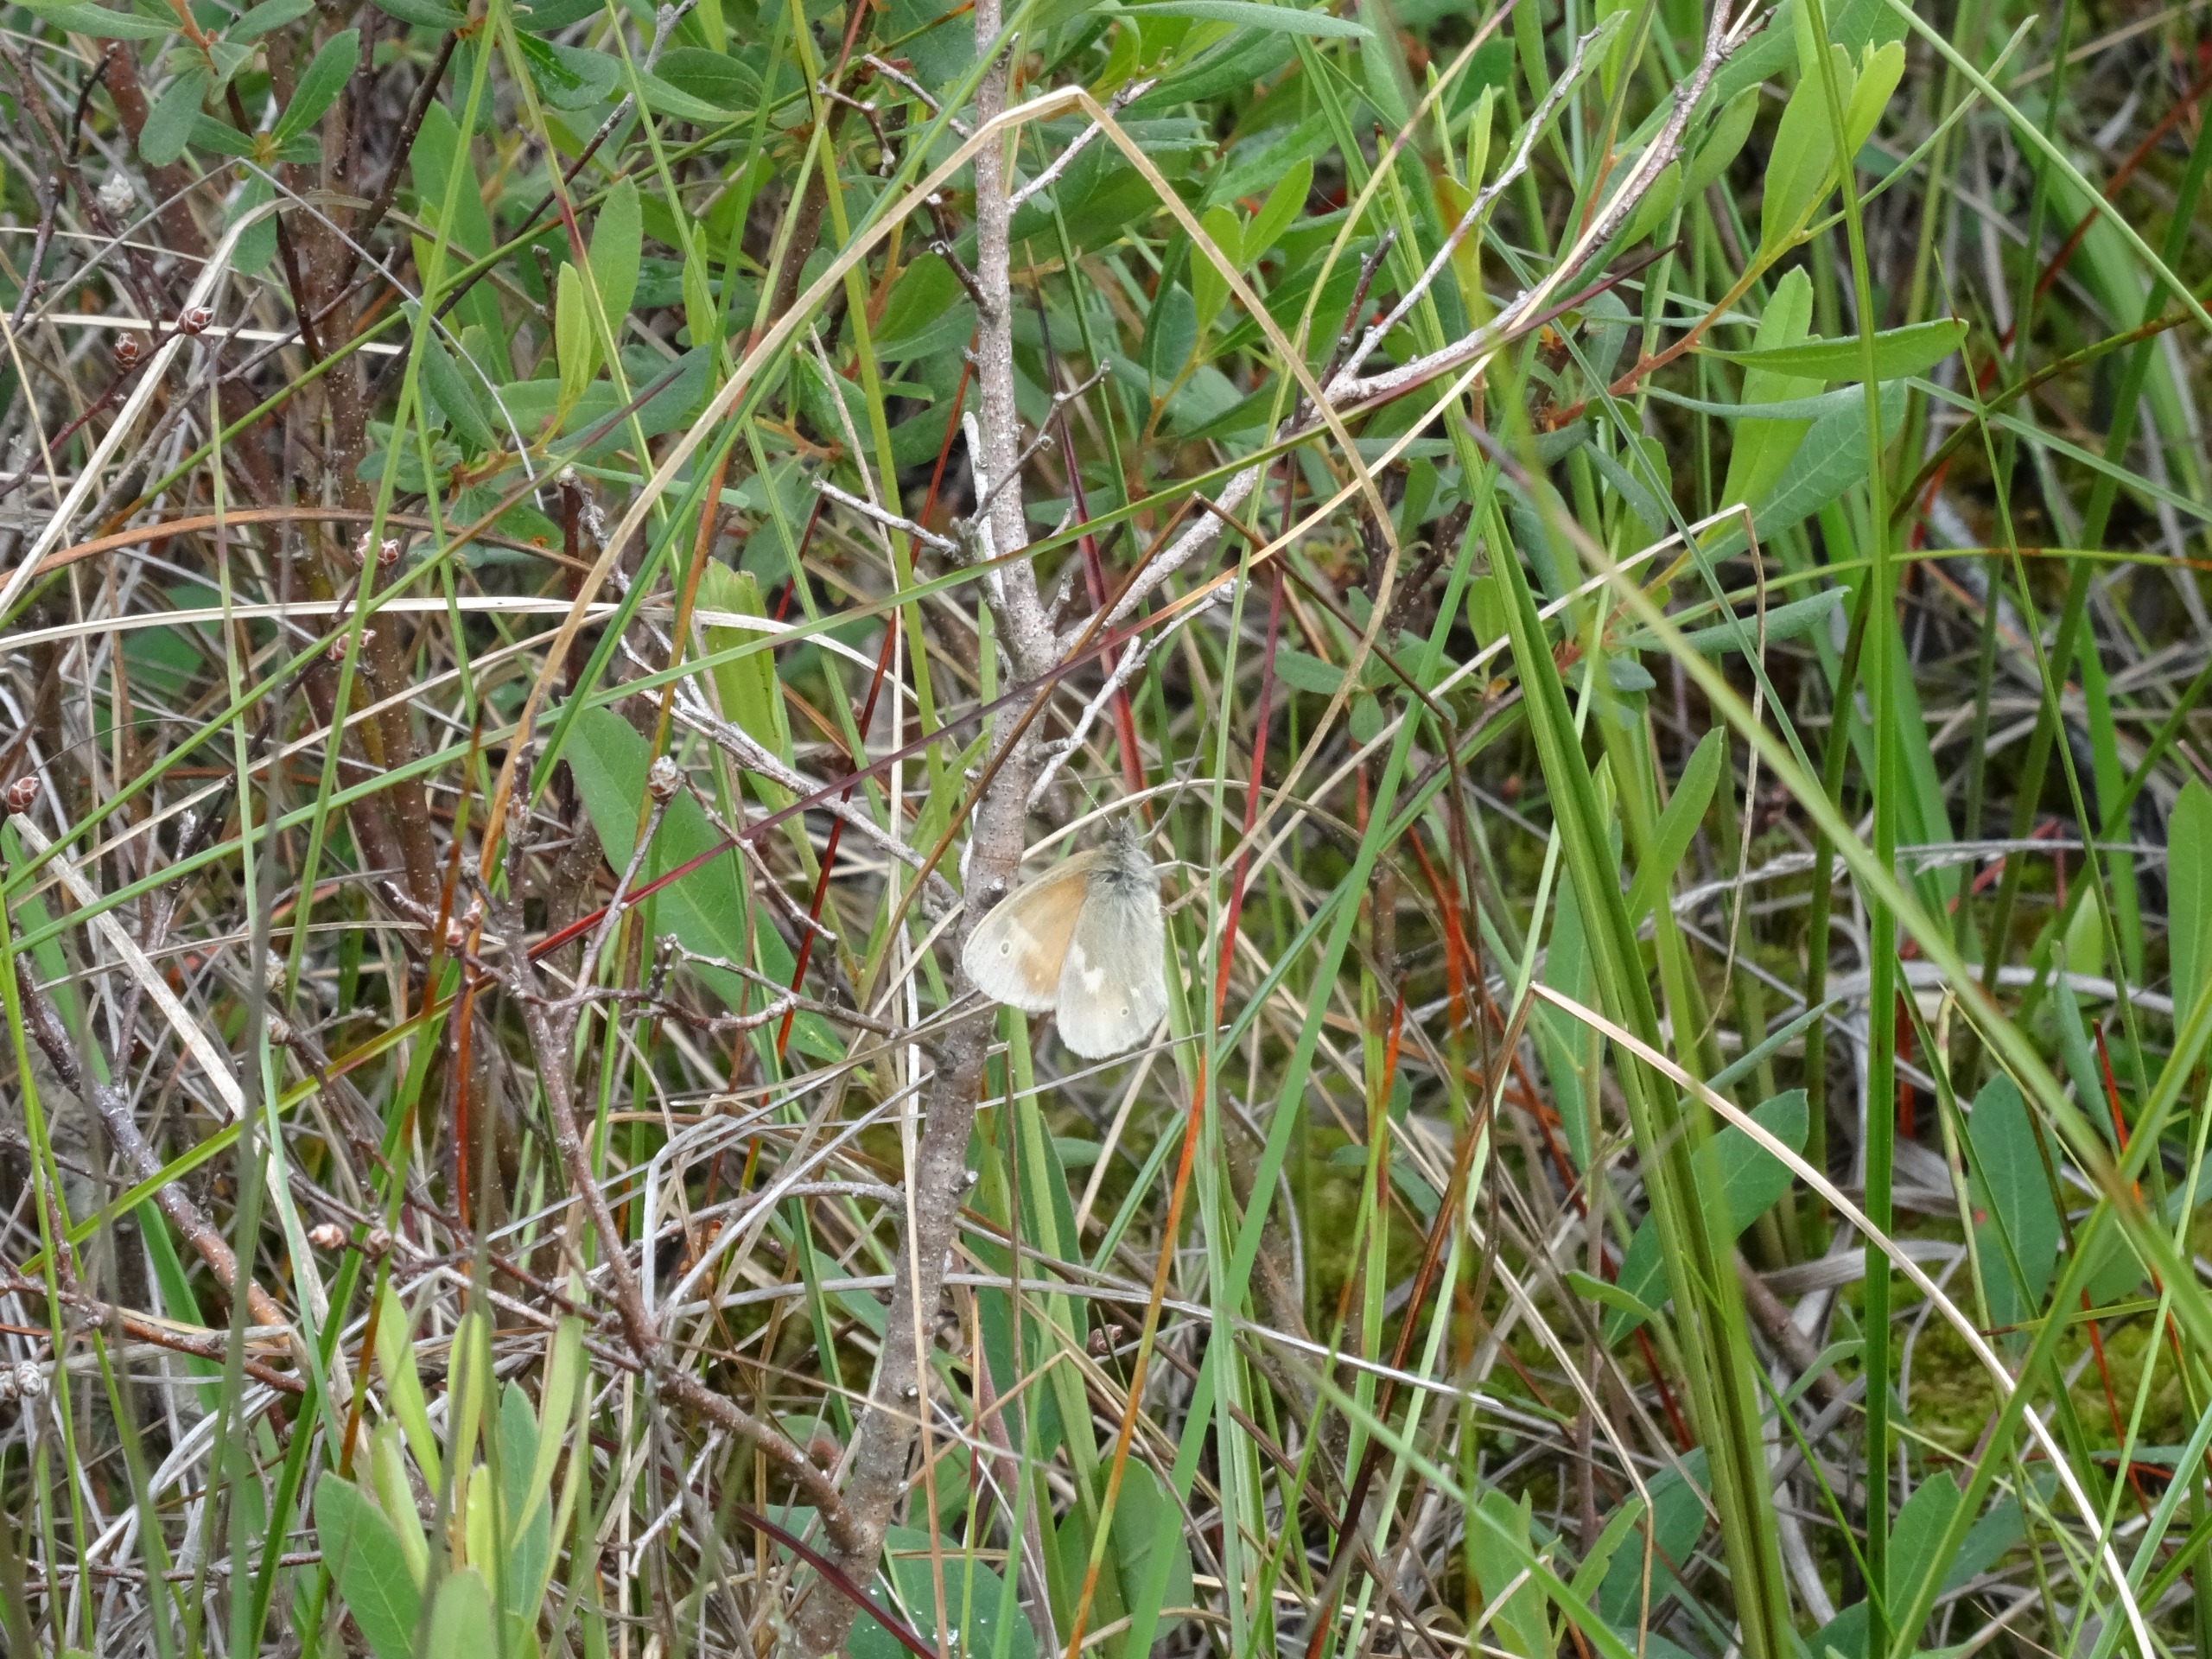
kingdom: Animalia
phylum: Arthropoda
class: Insecta
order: Lepidoptera
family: Nymphalidae
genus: Coenonympha
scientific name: Coenonympha tullia
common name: Moserandøje
